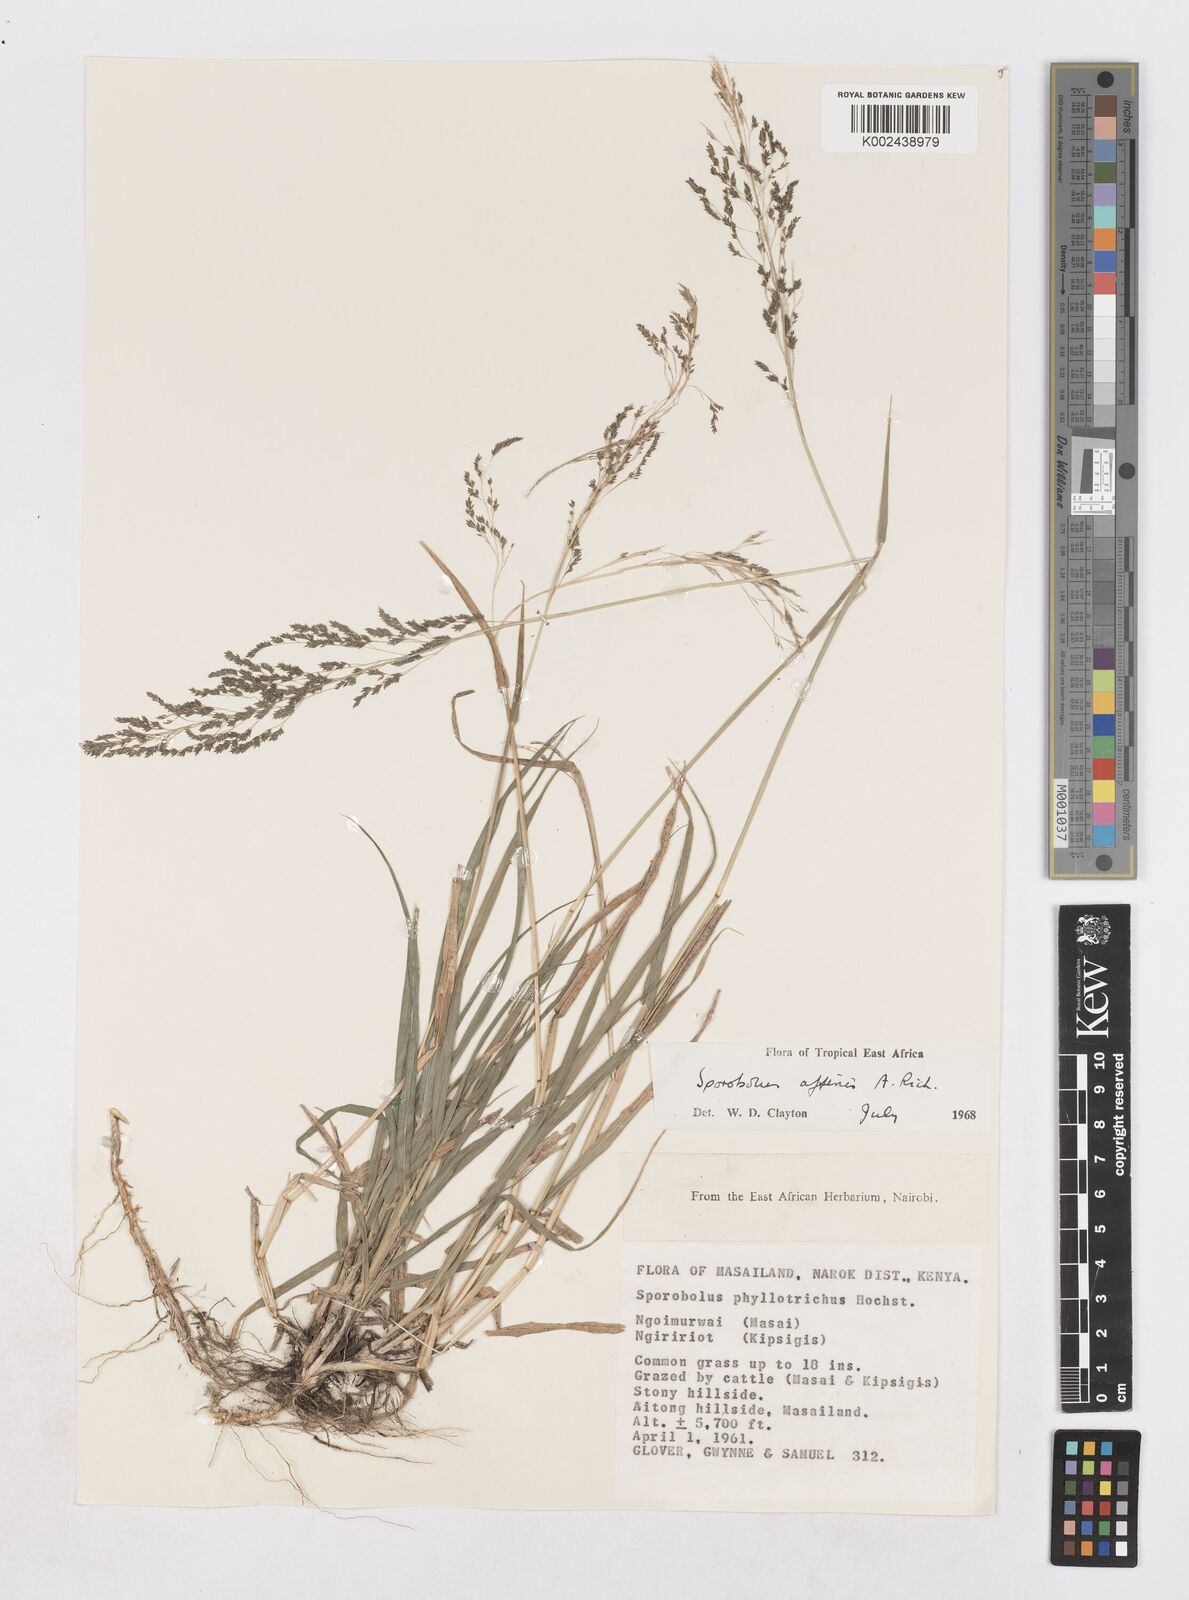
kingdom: Plantae
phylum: Tracheophyta
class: Liliopsida
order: Poales
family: Poaceae
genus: Sporobolus
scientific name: Sporobolus confinis
